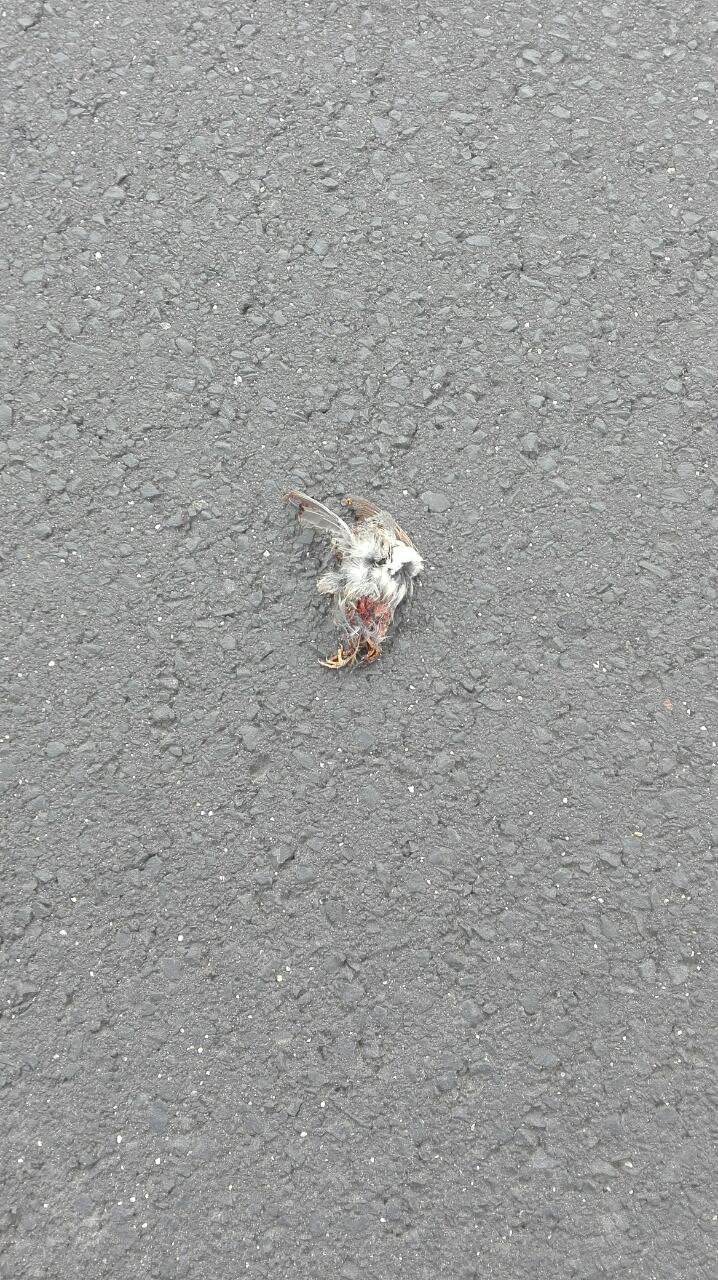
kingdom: Animalia
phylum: Chordata
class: Aves
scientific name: Aves
